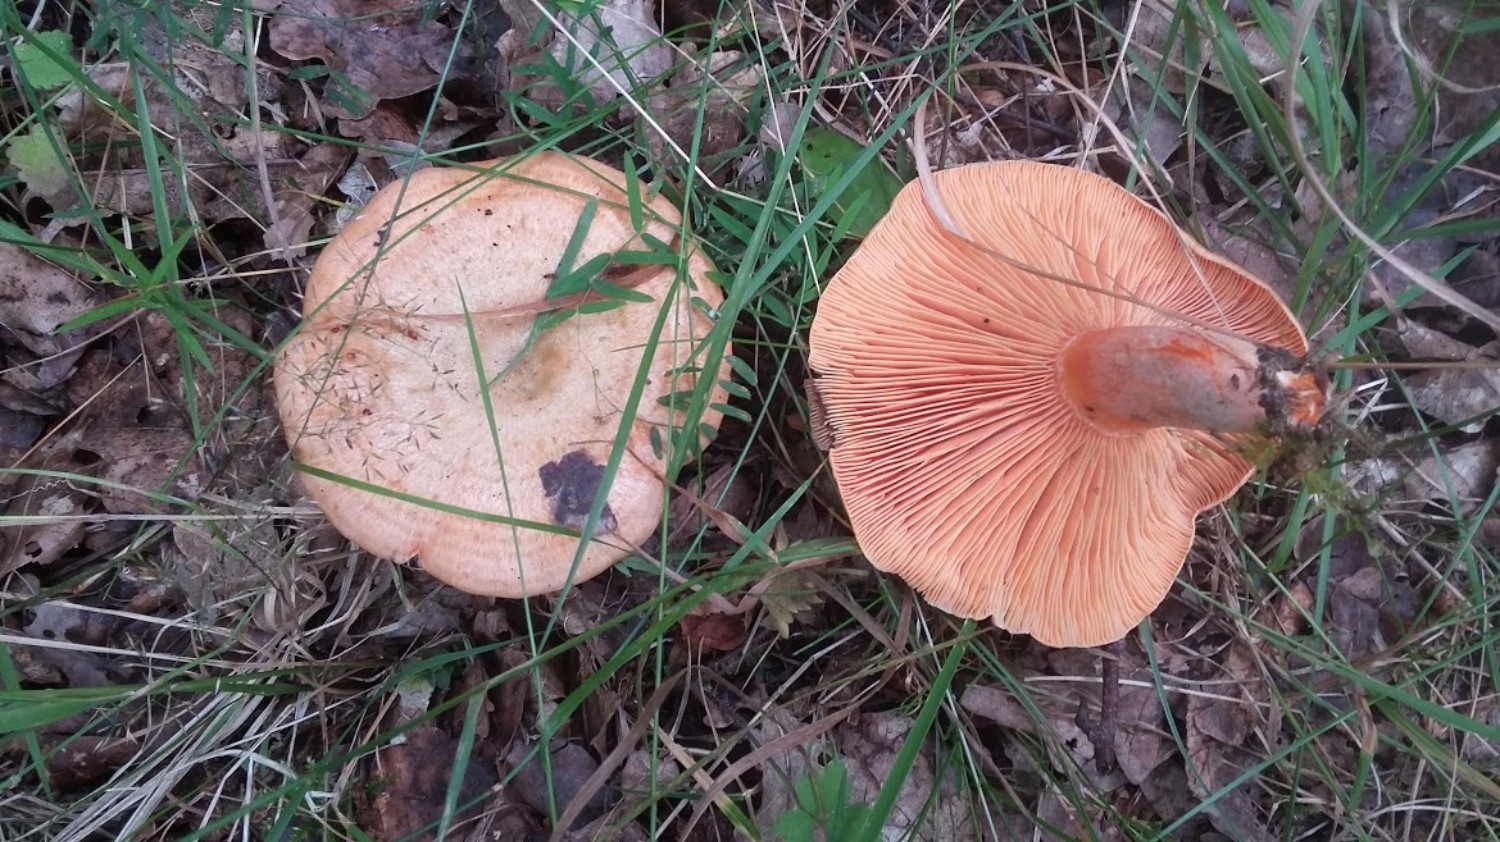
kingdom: Fungi
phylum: Basidiomycota
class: Agaricomycetes
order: Russulales
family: Russulaceae
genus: Lactarius
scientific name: Lactarius deterrimus
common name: gran-mælkehat
